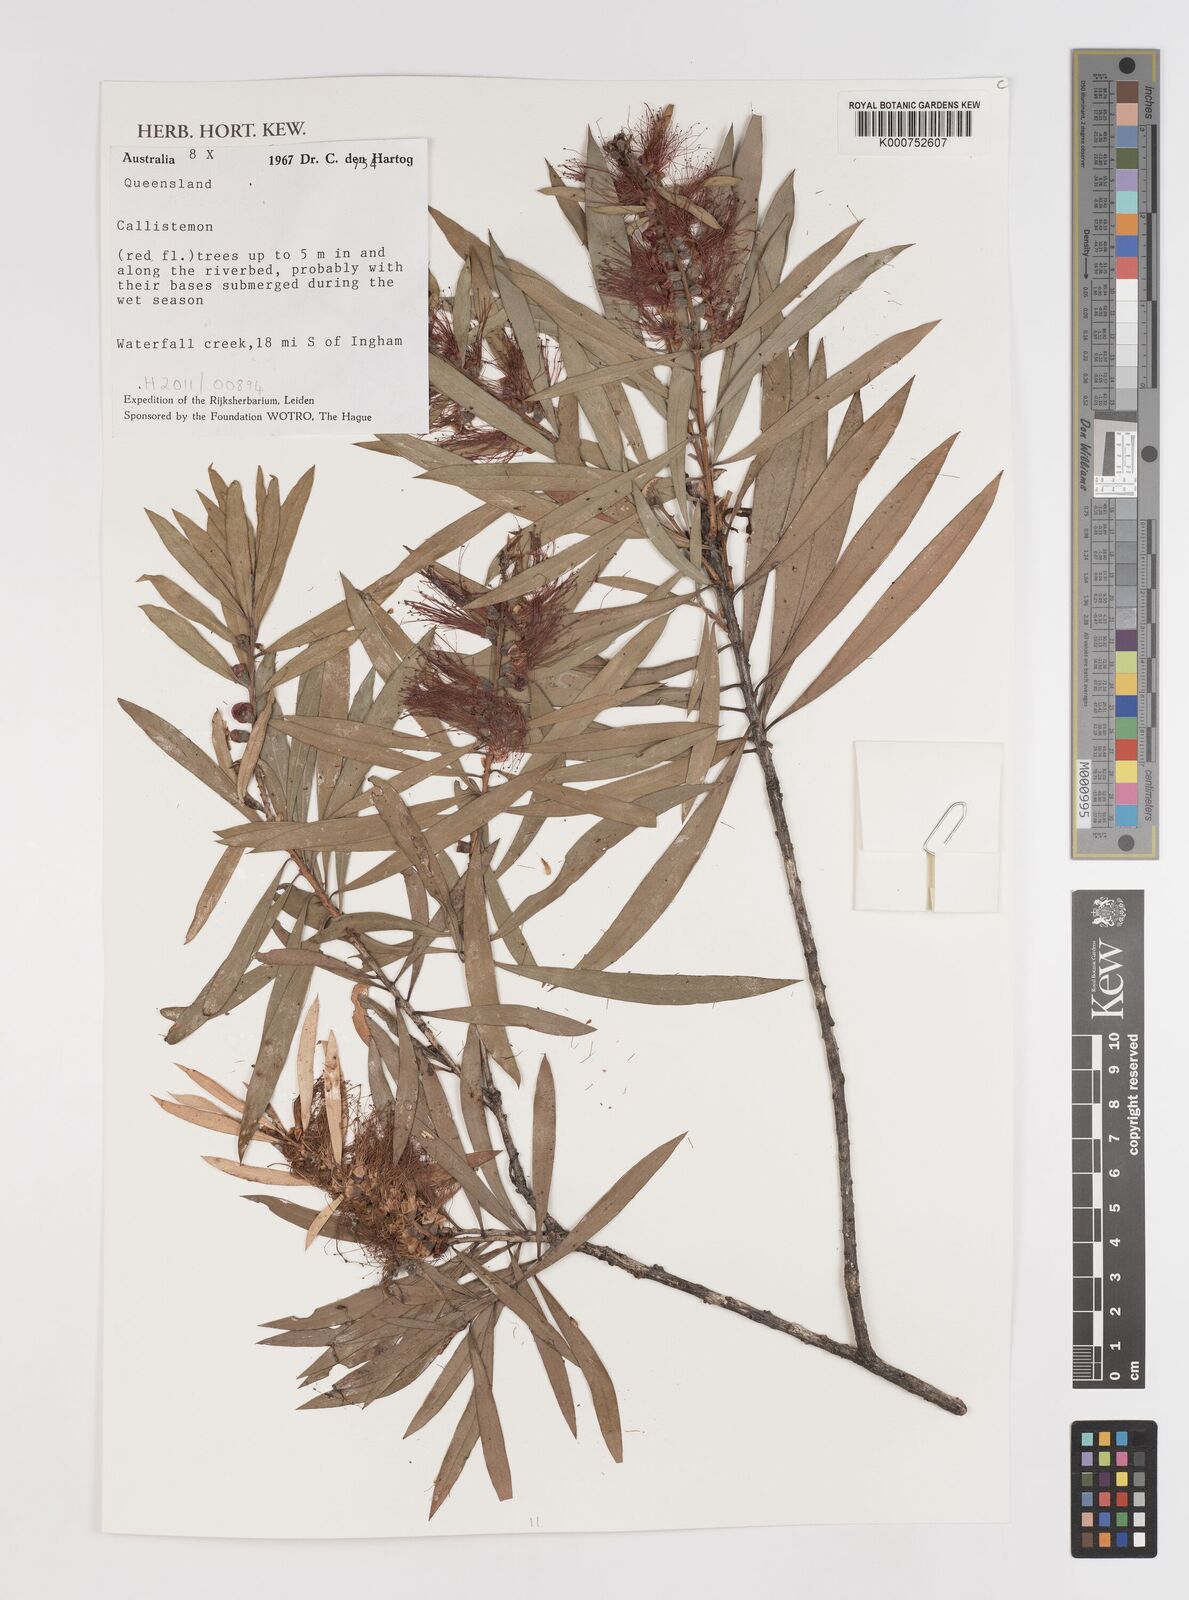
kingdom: Plantae
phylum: Tracheophyta
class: Magnoliopsida
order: Myrtales
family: Myrtaceae
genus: Callistemon
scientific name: Callistemon
